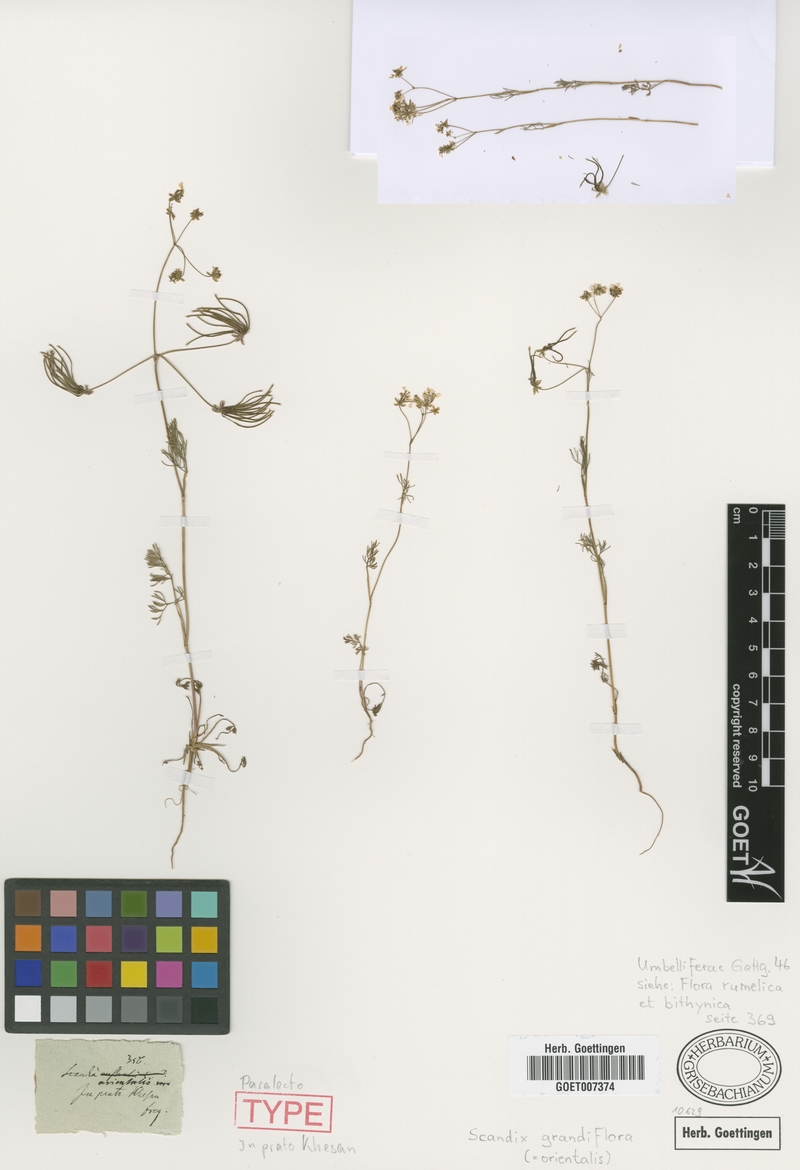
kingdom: Plantae
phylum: Tracheophyta
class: Magnoliopsida
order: Apiales
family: Apiaceae
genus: Scandix
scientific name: Scandix australis
